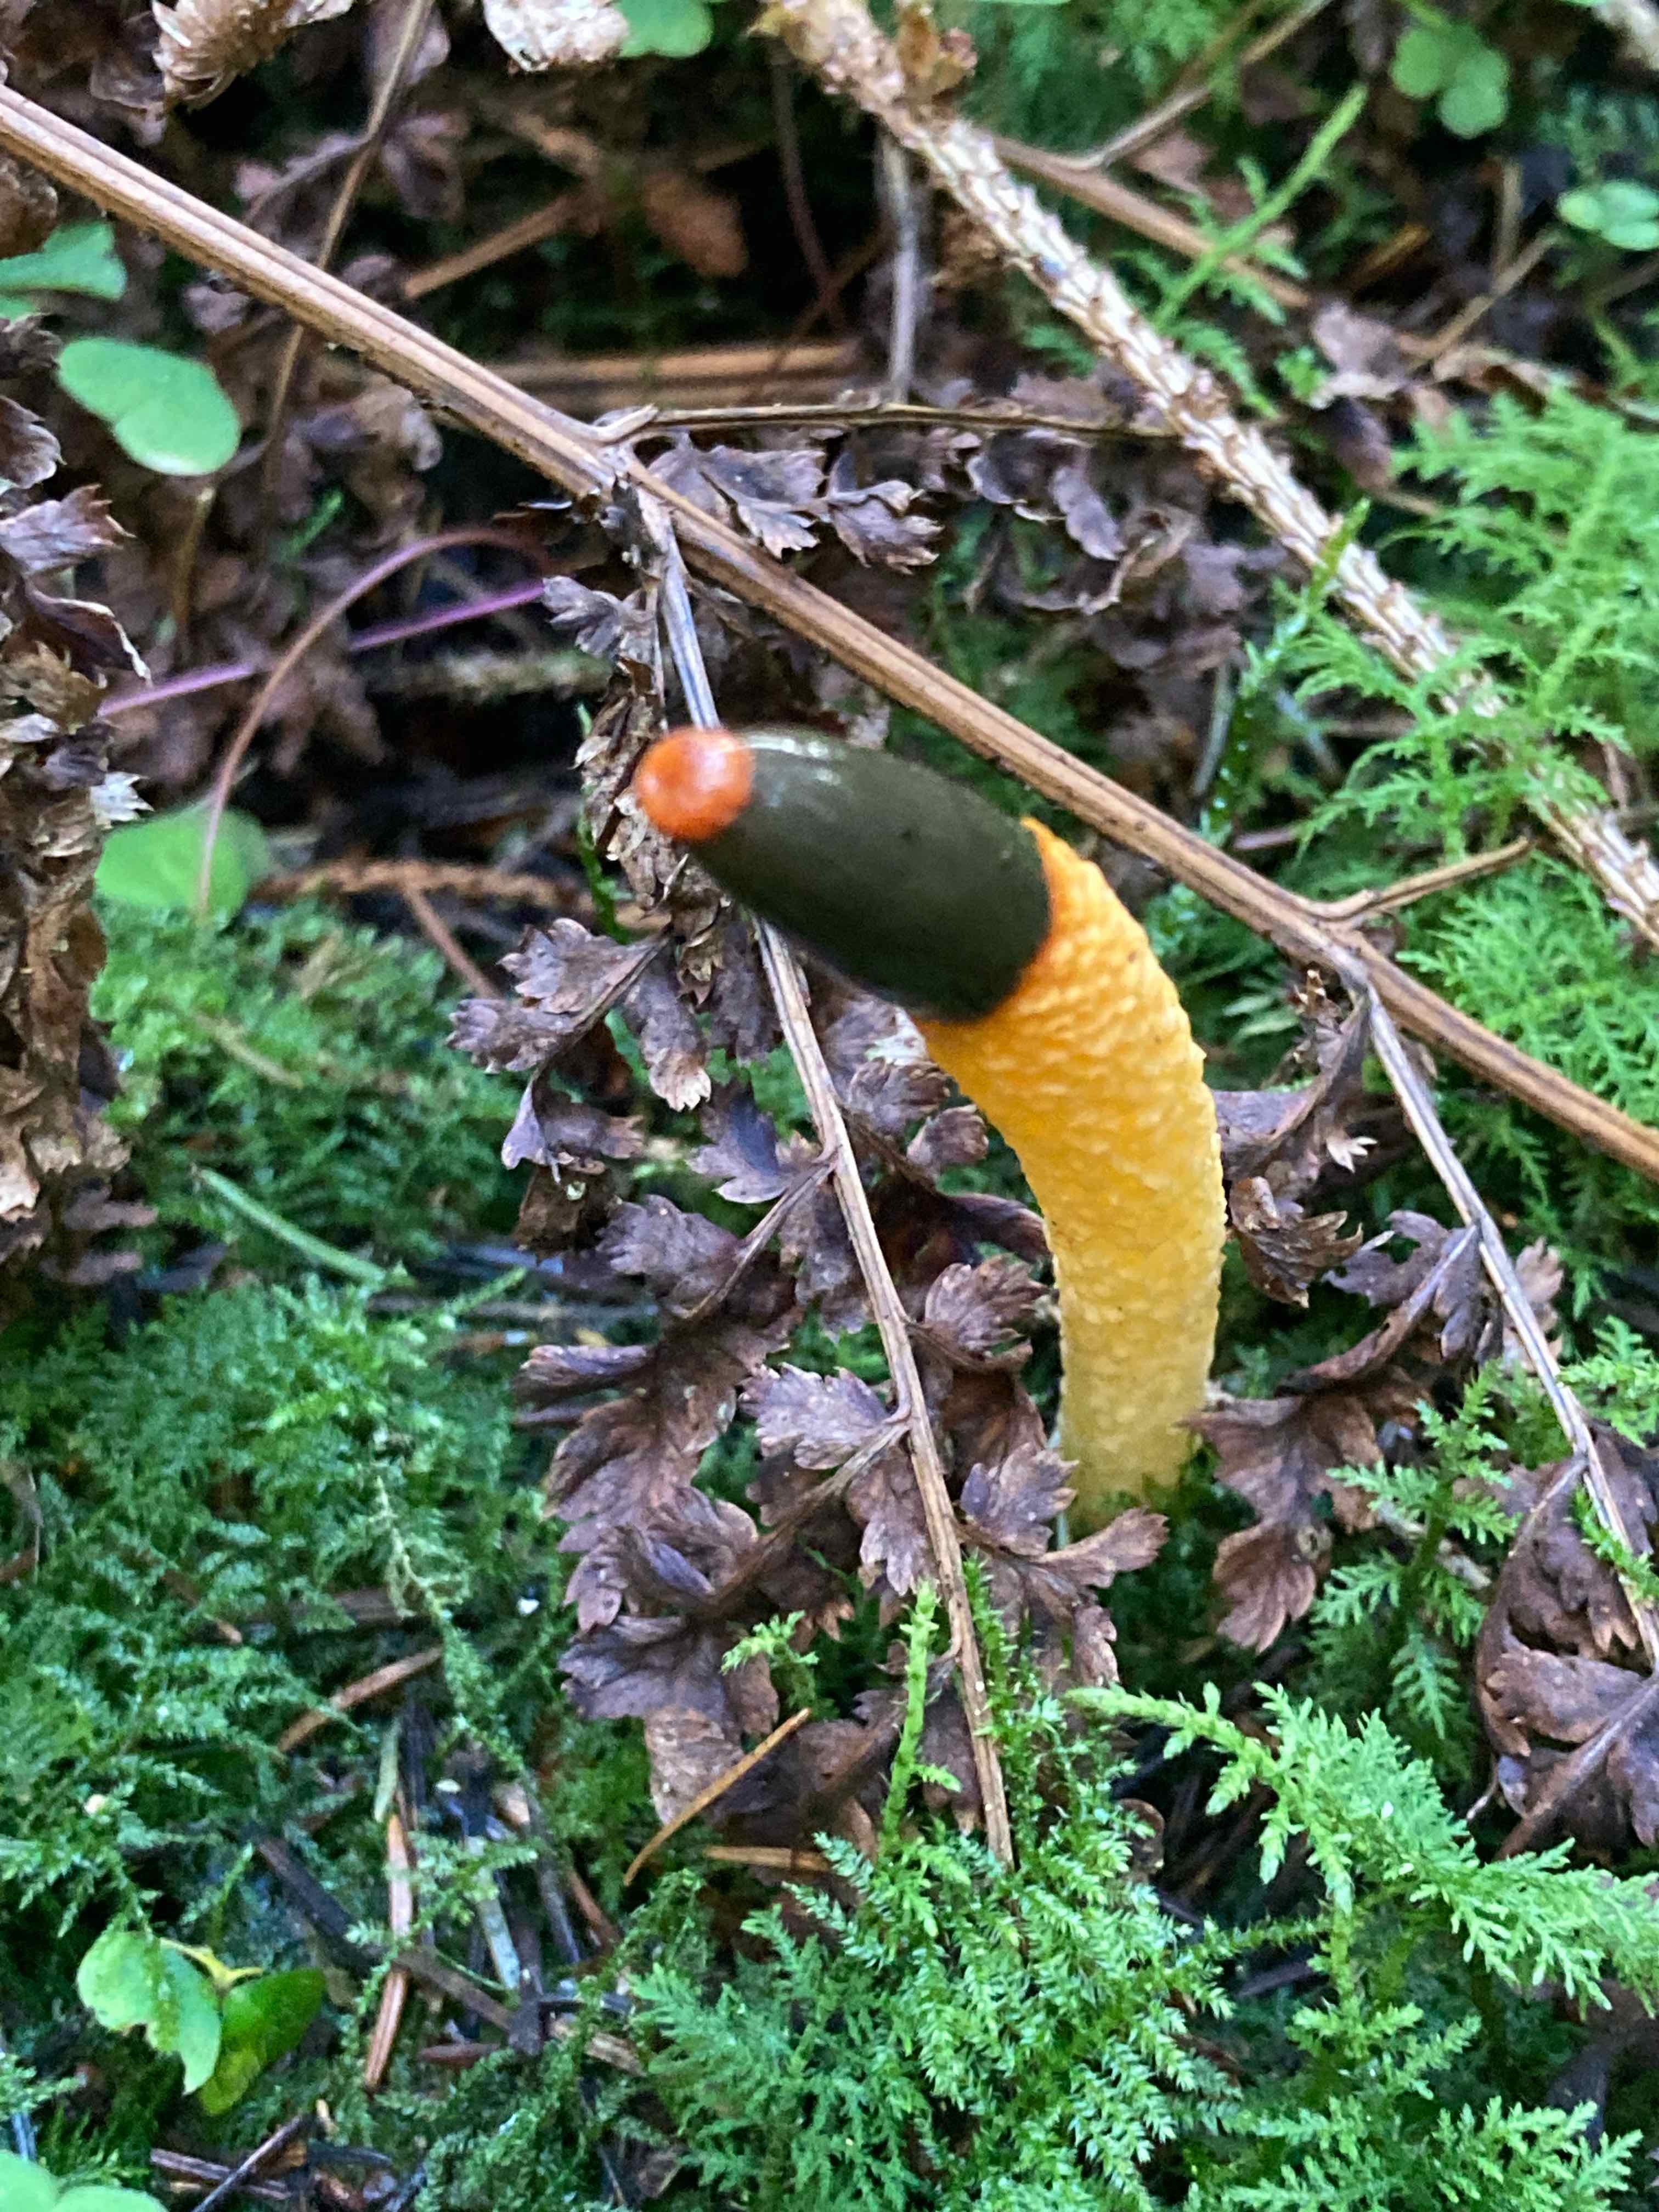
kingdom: Fungi
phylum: Basidiomycota
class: Agaricomycetes
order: Phallales
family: Phallaceae
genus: Mutinus
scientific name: Mutinus caninus
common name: hunde-stinksvamp
